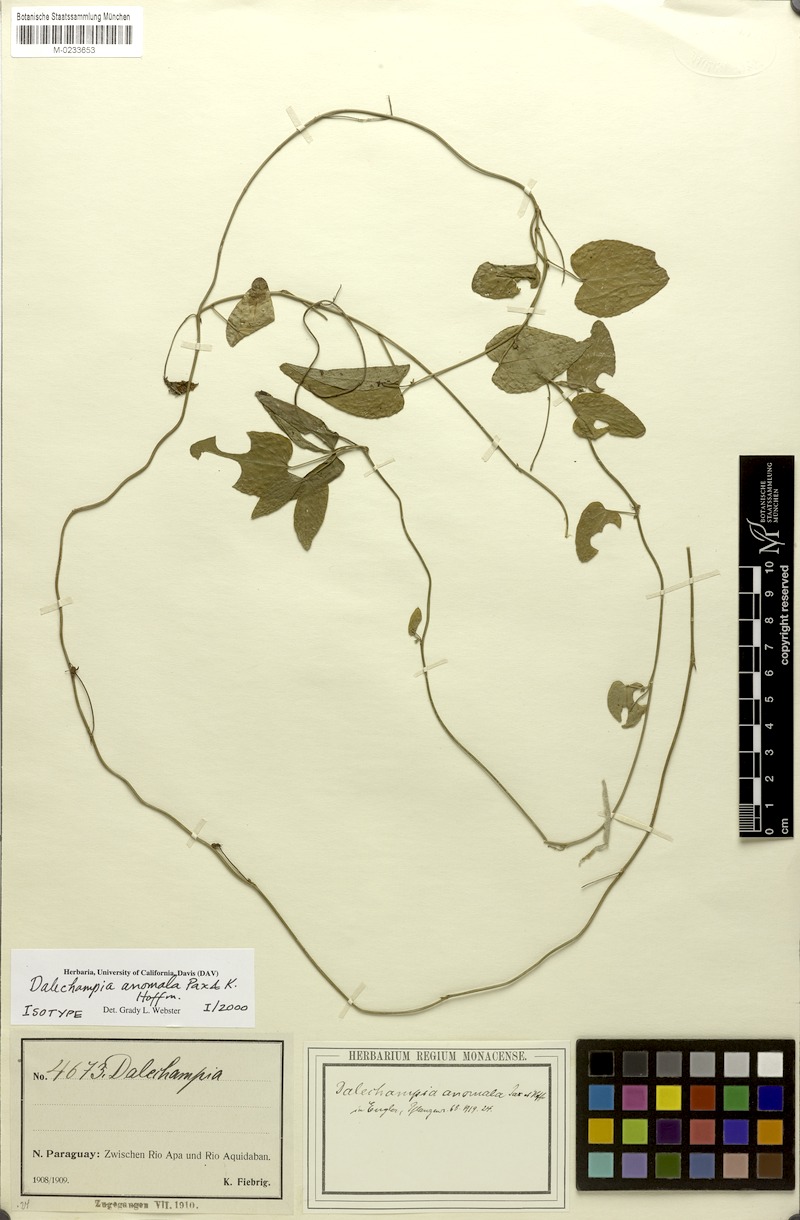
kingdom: Plantae
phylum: Tracheophyta
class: Magnoliopsida
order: Malpighiales
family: Euphorbiaceae
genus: Dalechampia
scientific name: Dalechampia anomala
